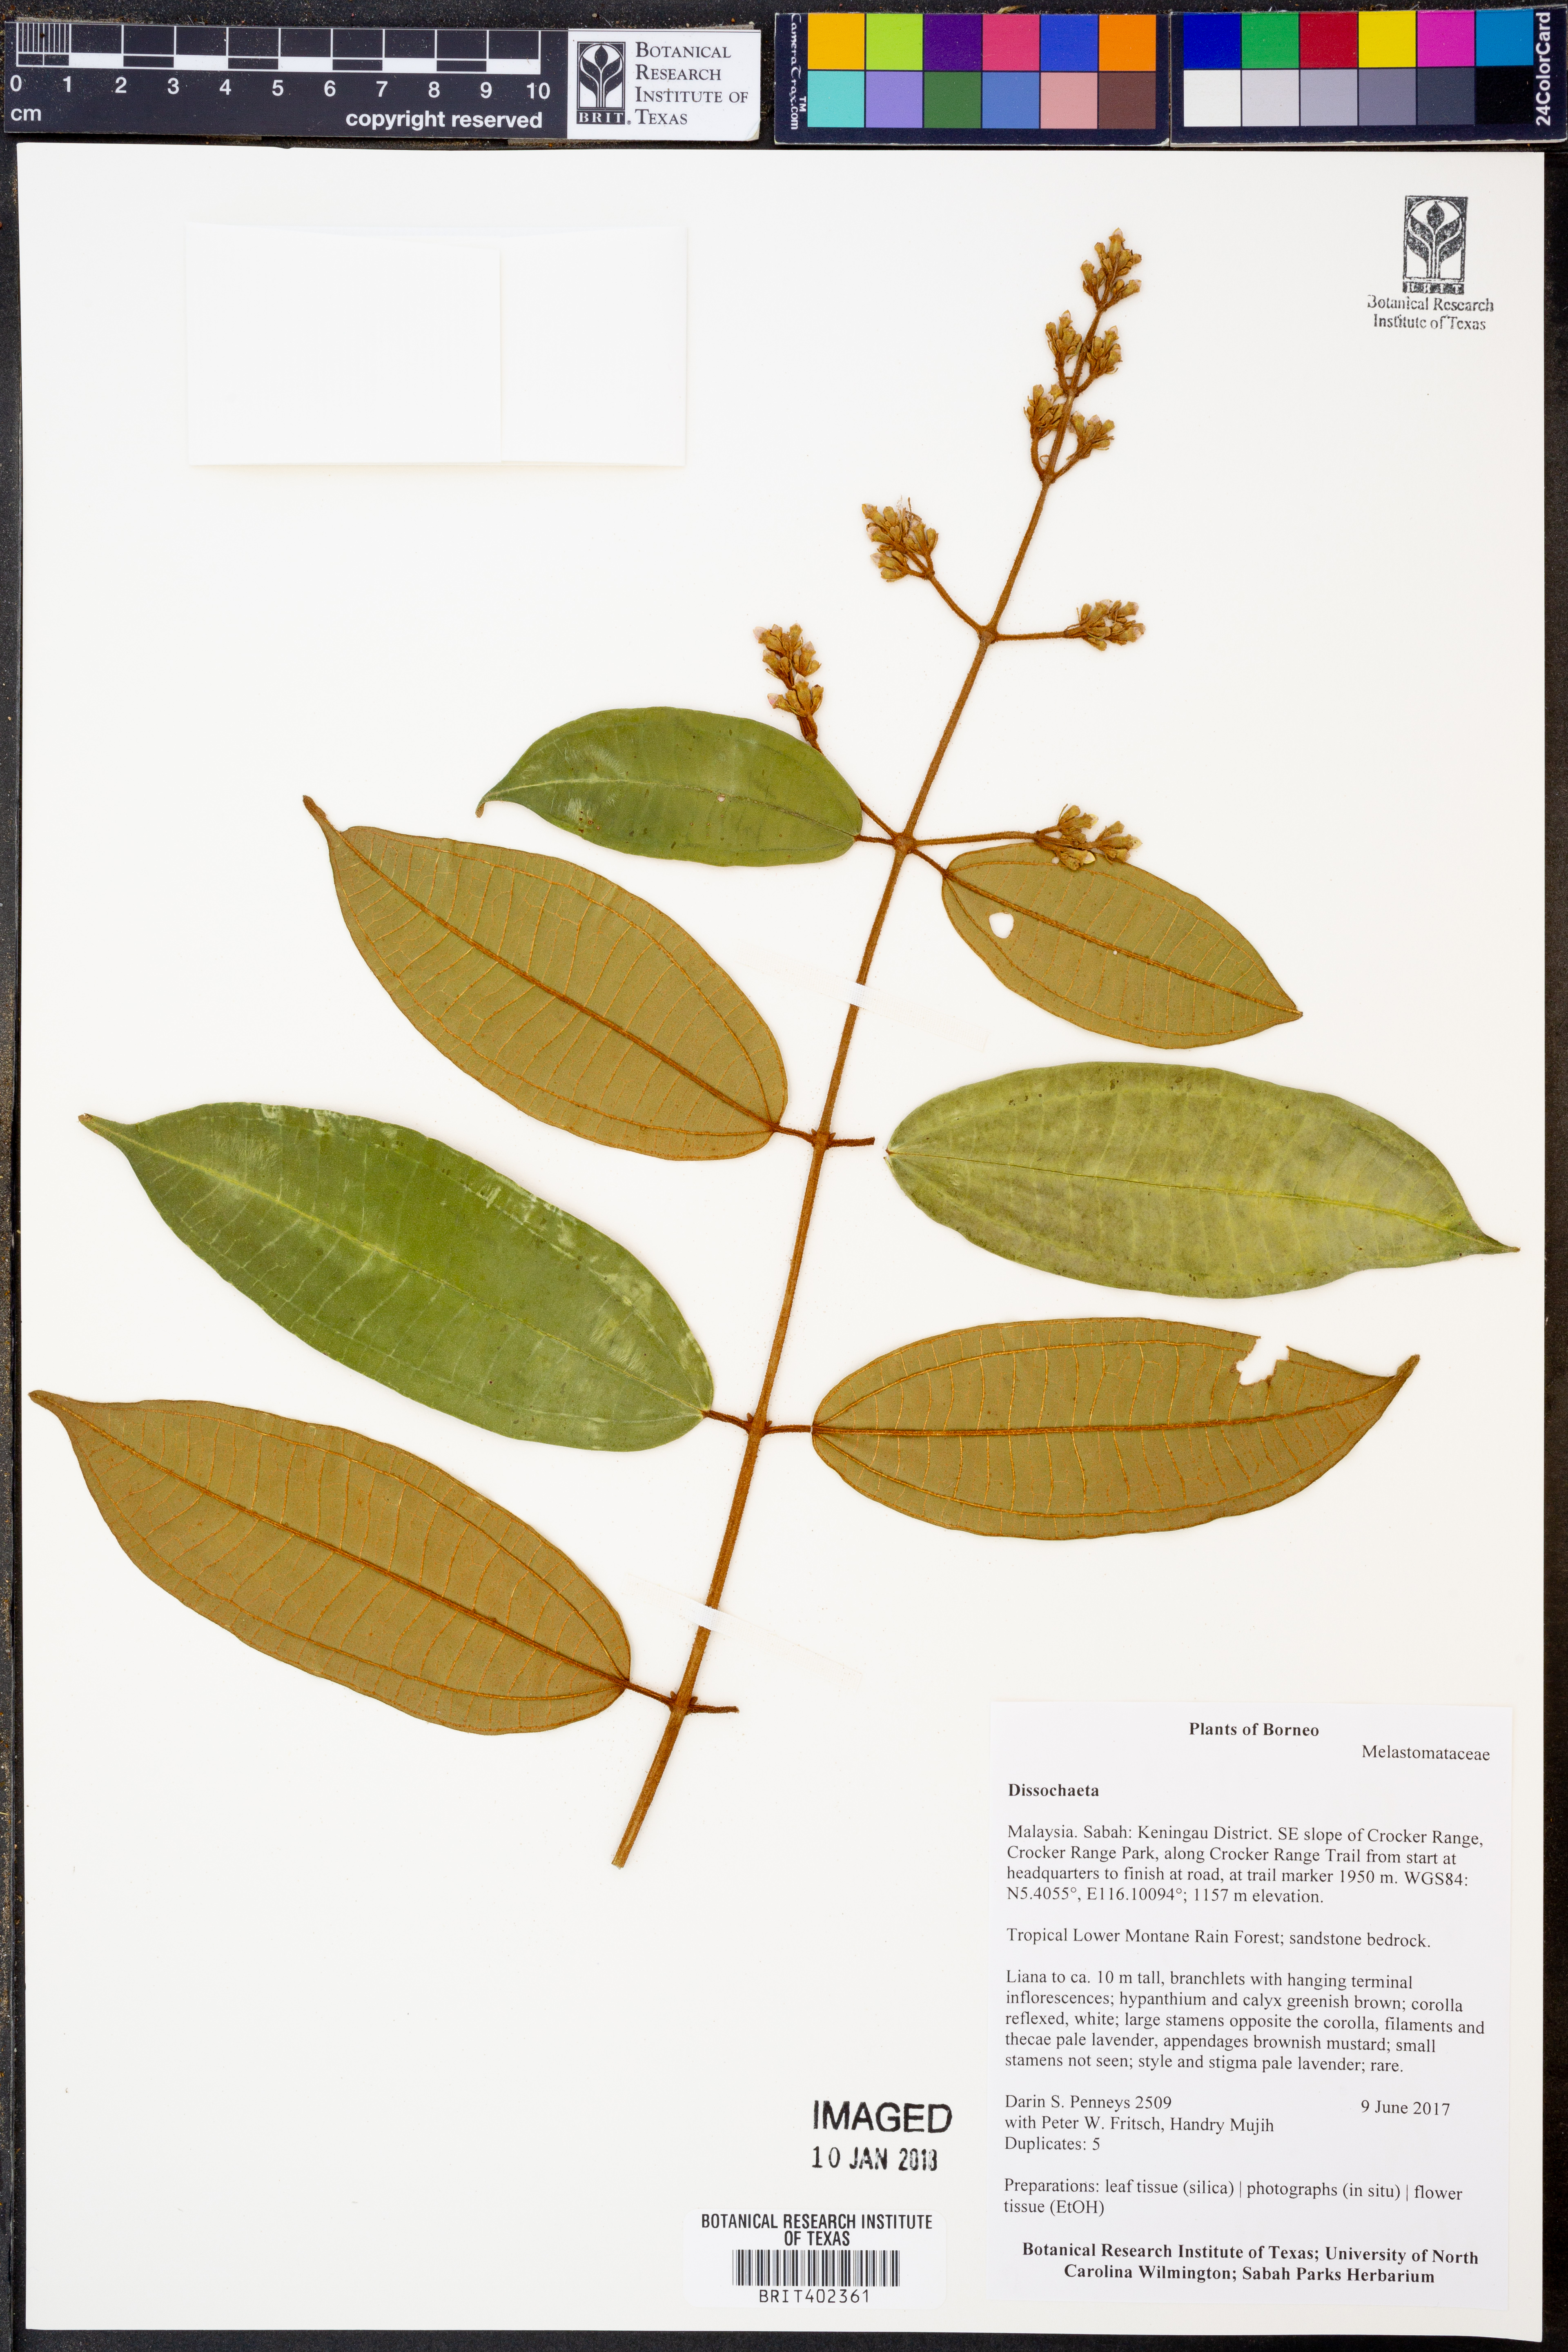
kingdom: Plantae
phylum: Tracheophyta
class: Magnoliopsida
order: Myrtales
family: Melastomataceae
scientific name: Melastomataceae
